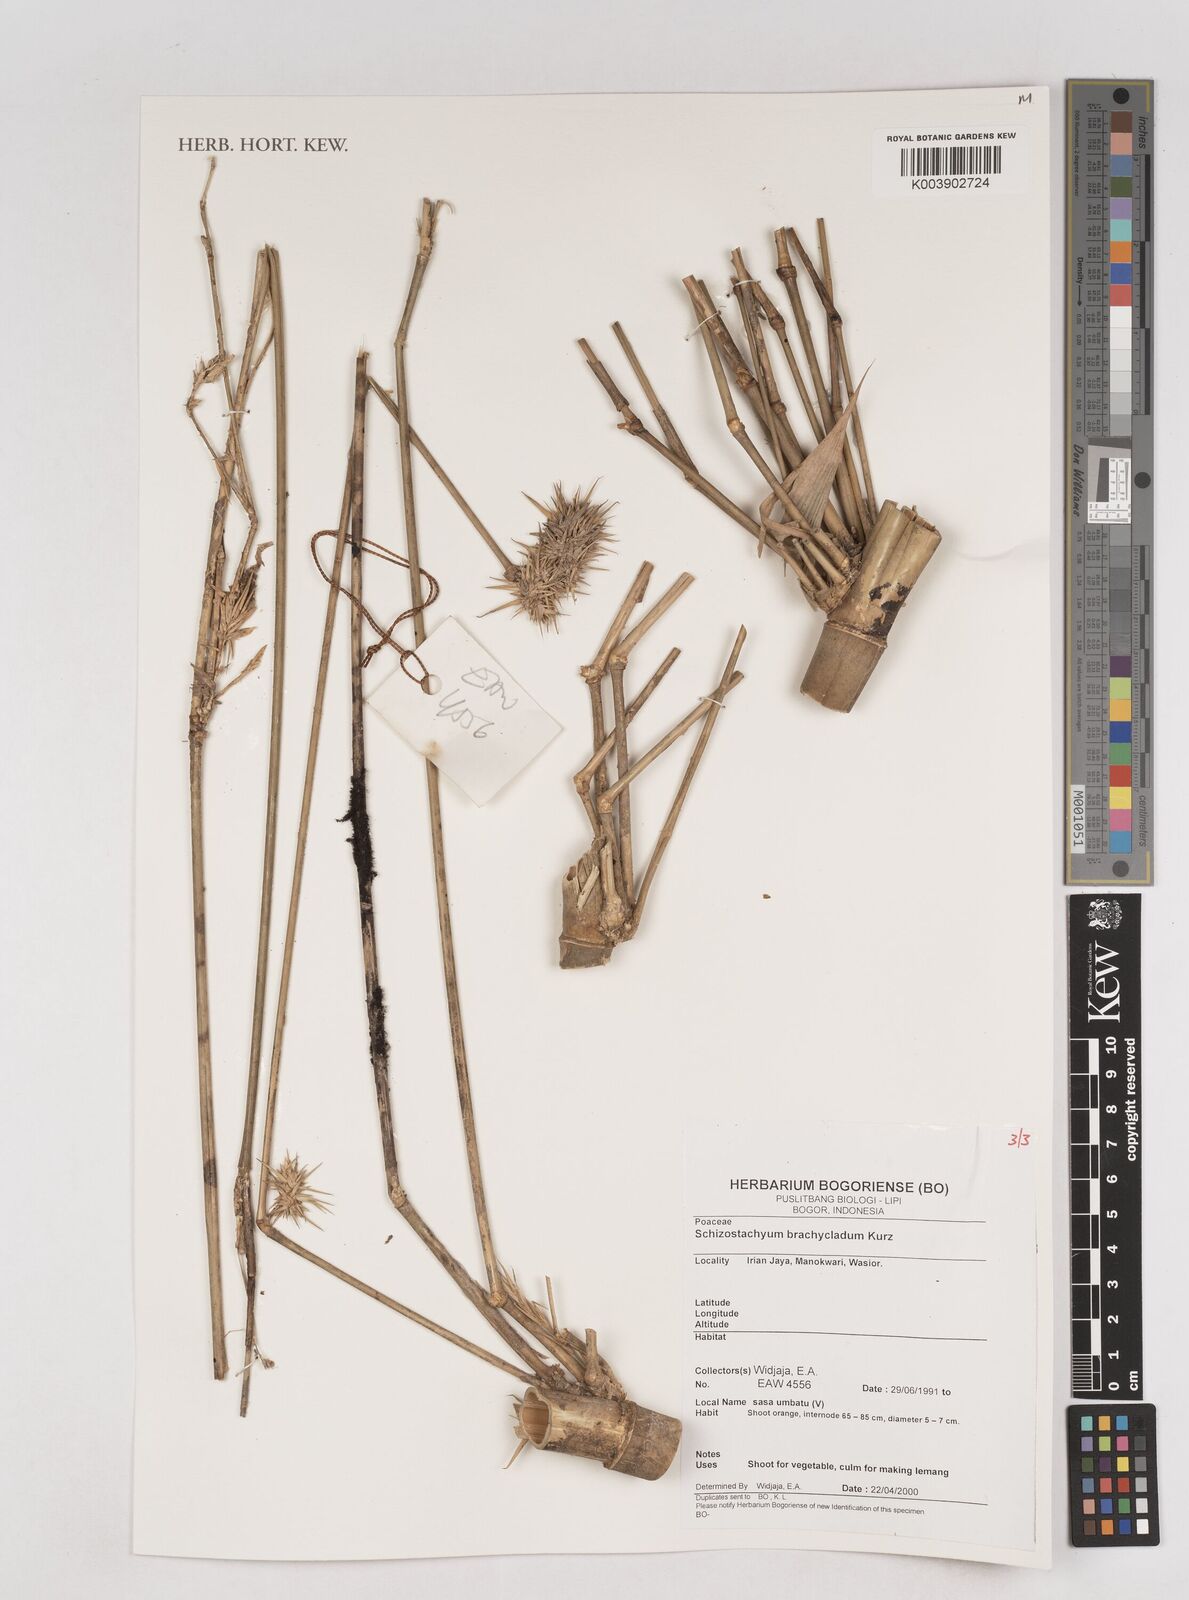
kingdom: Plantae
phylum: Tracheophyta
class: Liliopsida
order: Poales
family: Poaceae
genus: Schizostachyum
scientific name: Schizostachyum brachycladum
